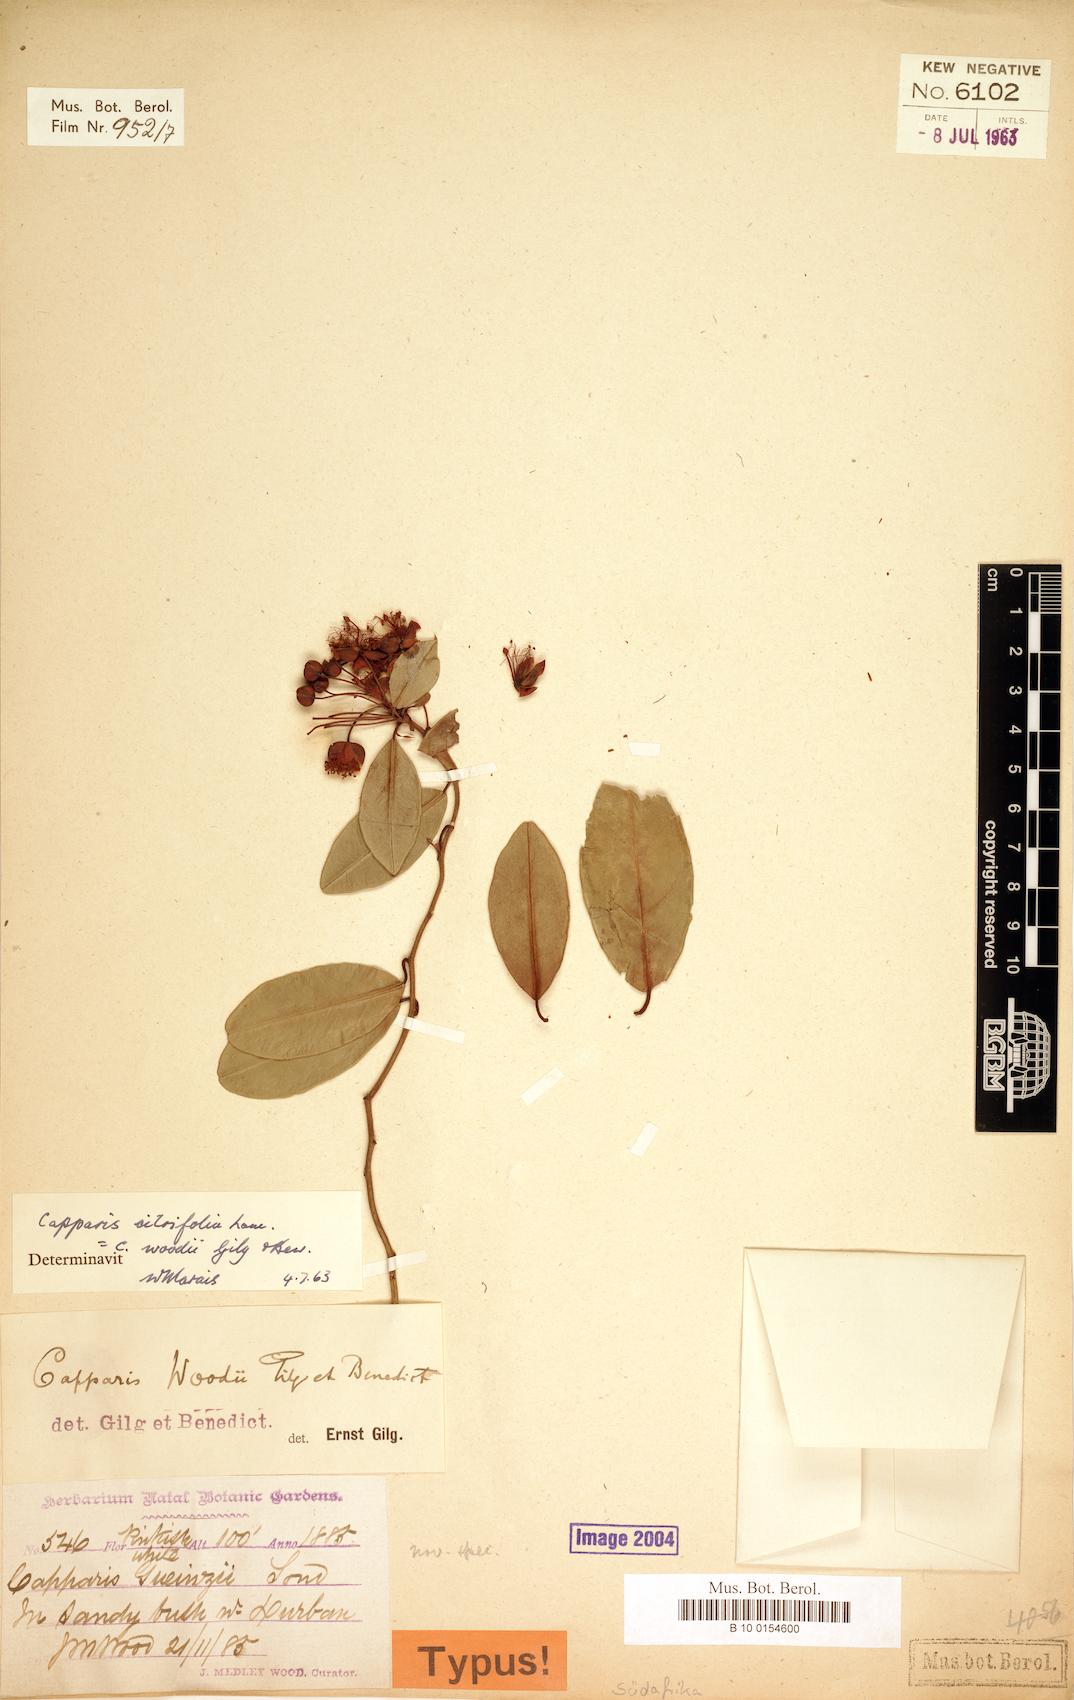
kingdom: Plantae
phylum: Tracheophyta
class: Magnoliopsida
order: Brassicales
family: Capparaceae
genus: Capparis
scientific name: Capparis sepiaria
